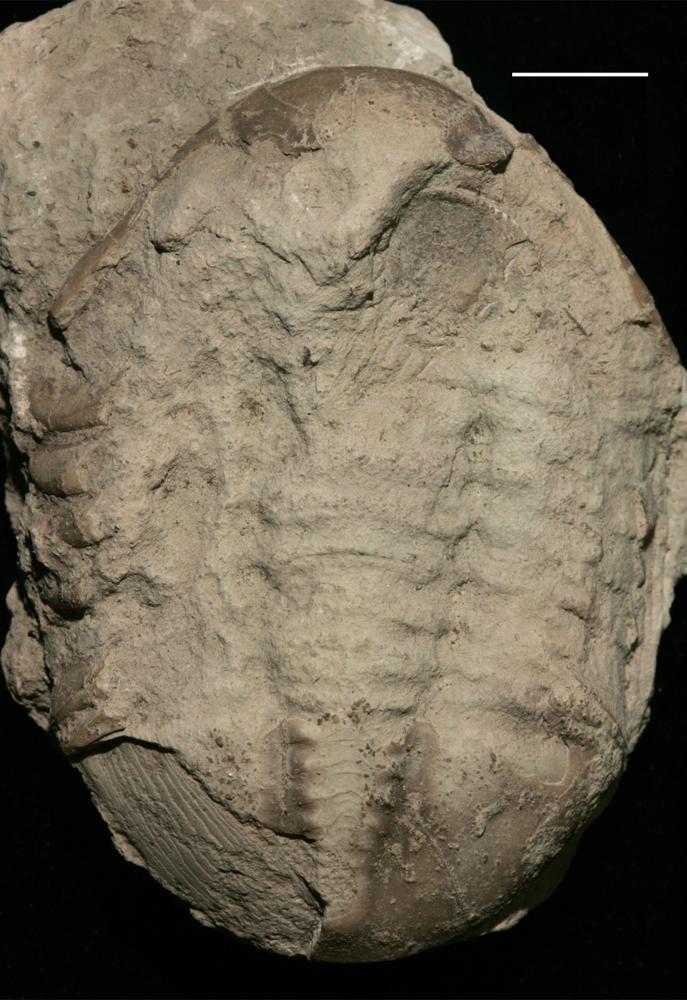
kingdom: Animalia
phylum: Arthropoda
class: Trilobita
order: Asaphida
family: Asaphidae
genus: Asaphus
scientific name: Asaphus expansus
